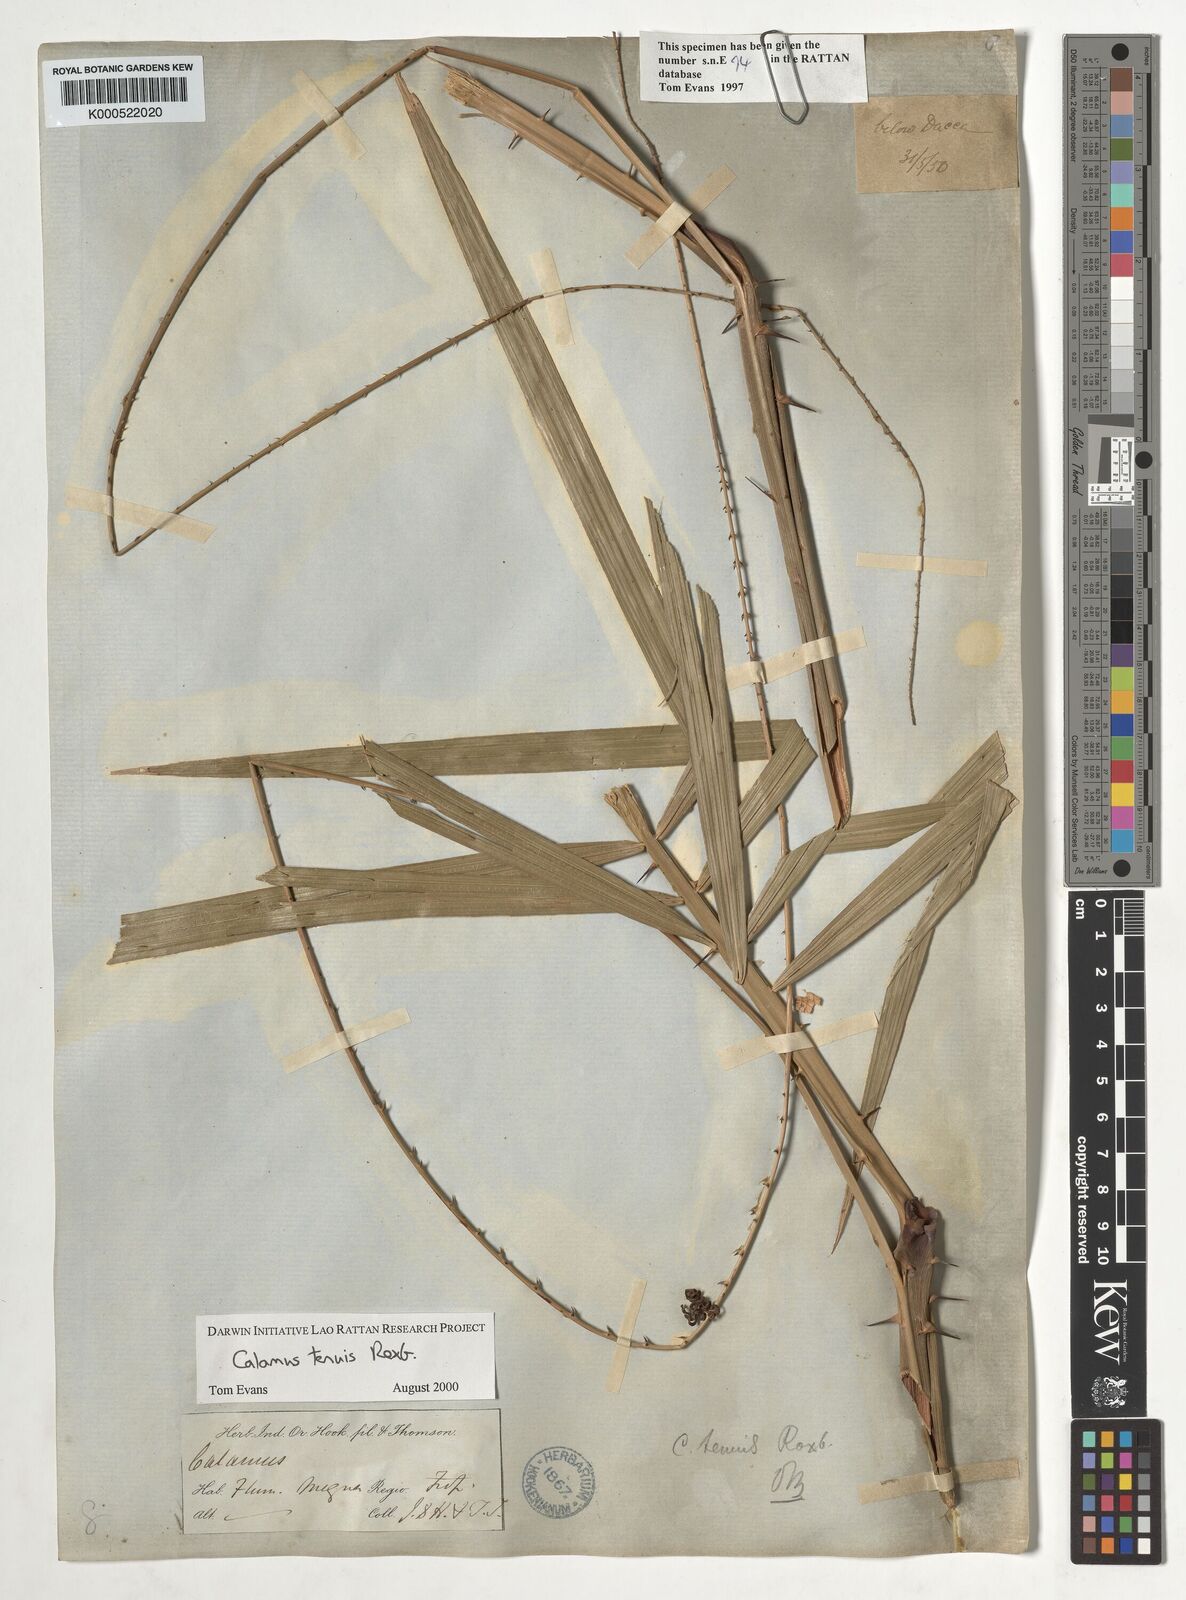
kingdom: Plantae
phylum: Tracheophyta
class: Liliopsida
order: Arecales
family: Arecaceae
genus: Calamus
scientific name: Calamus tenuis
